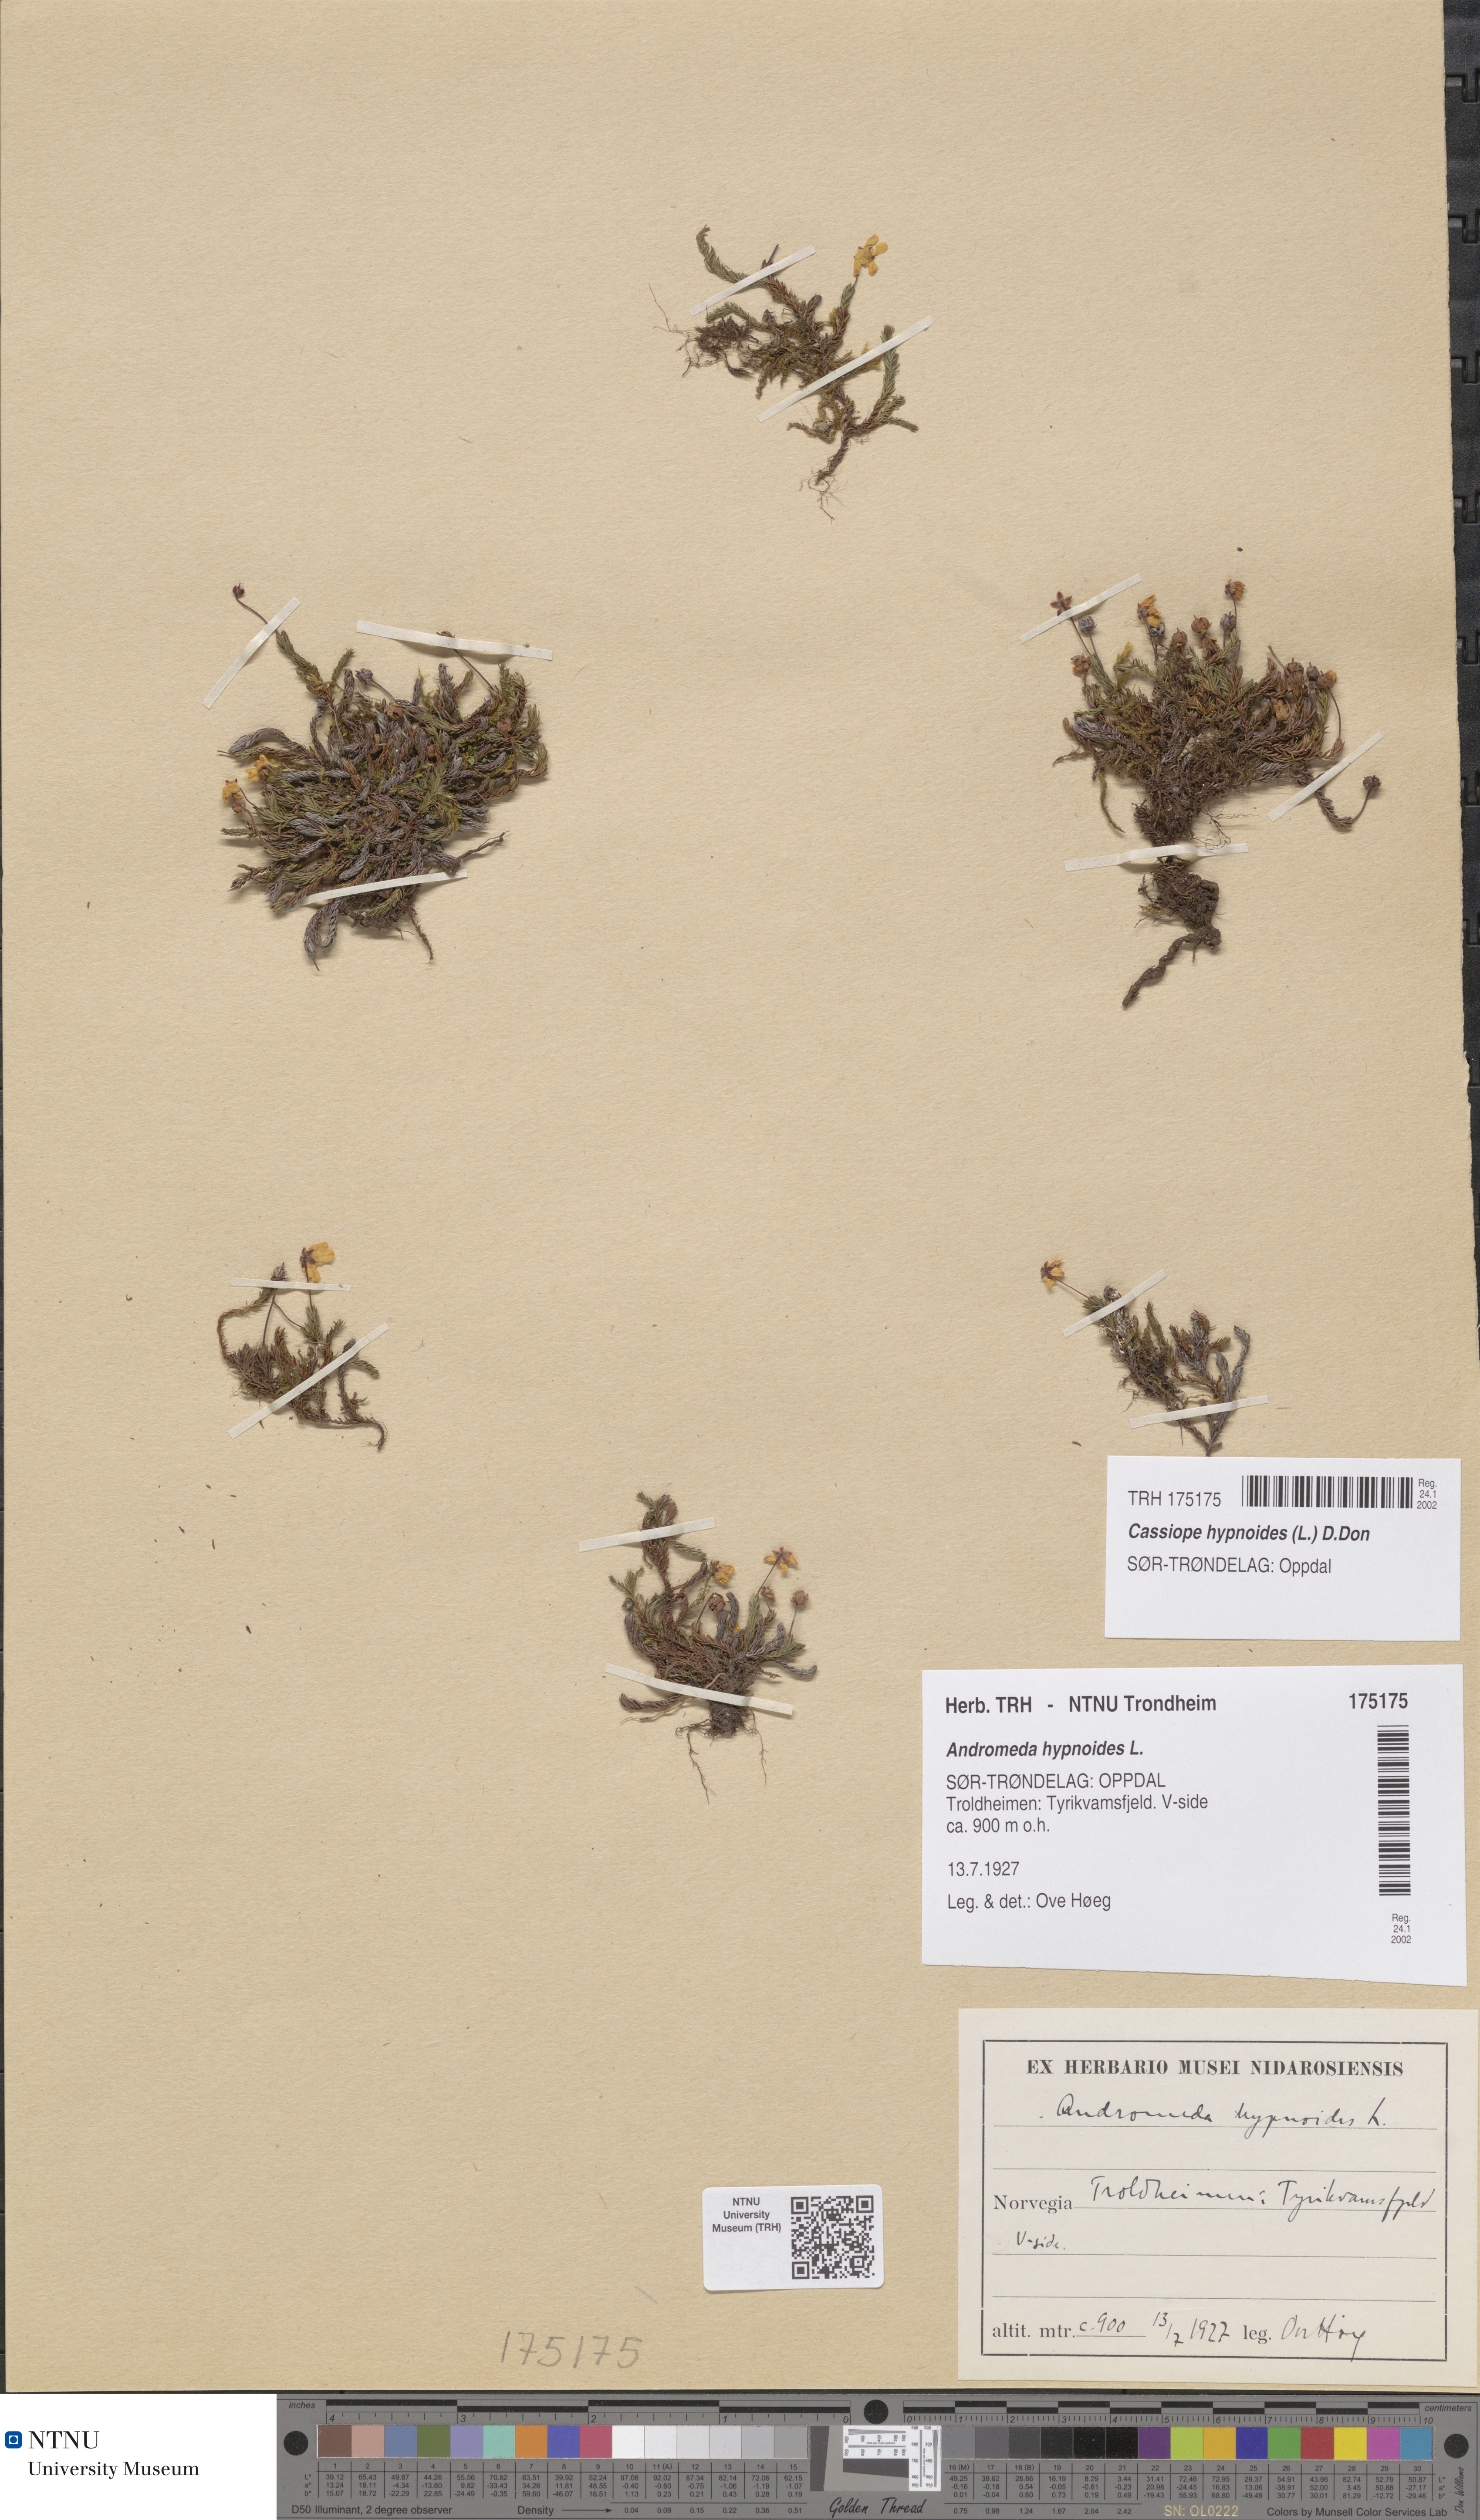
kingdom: Plantae
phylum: Tracheophyta
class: Magnoliopsida
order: Ericales
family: Ericaceae
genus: Harrimanella
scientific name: Harrimanella hypnoides
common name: Moss bell heather
